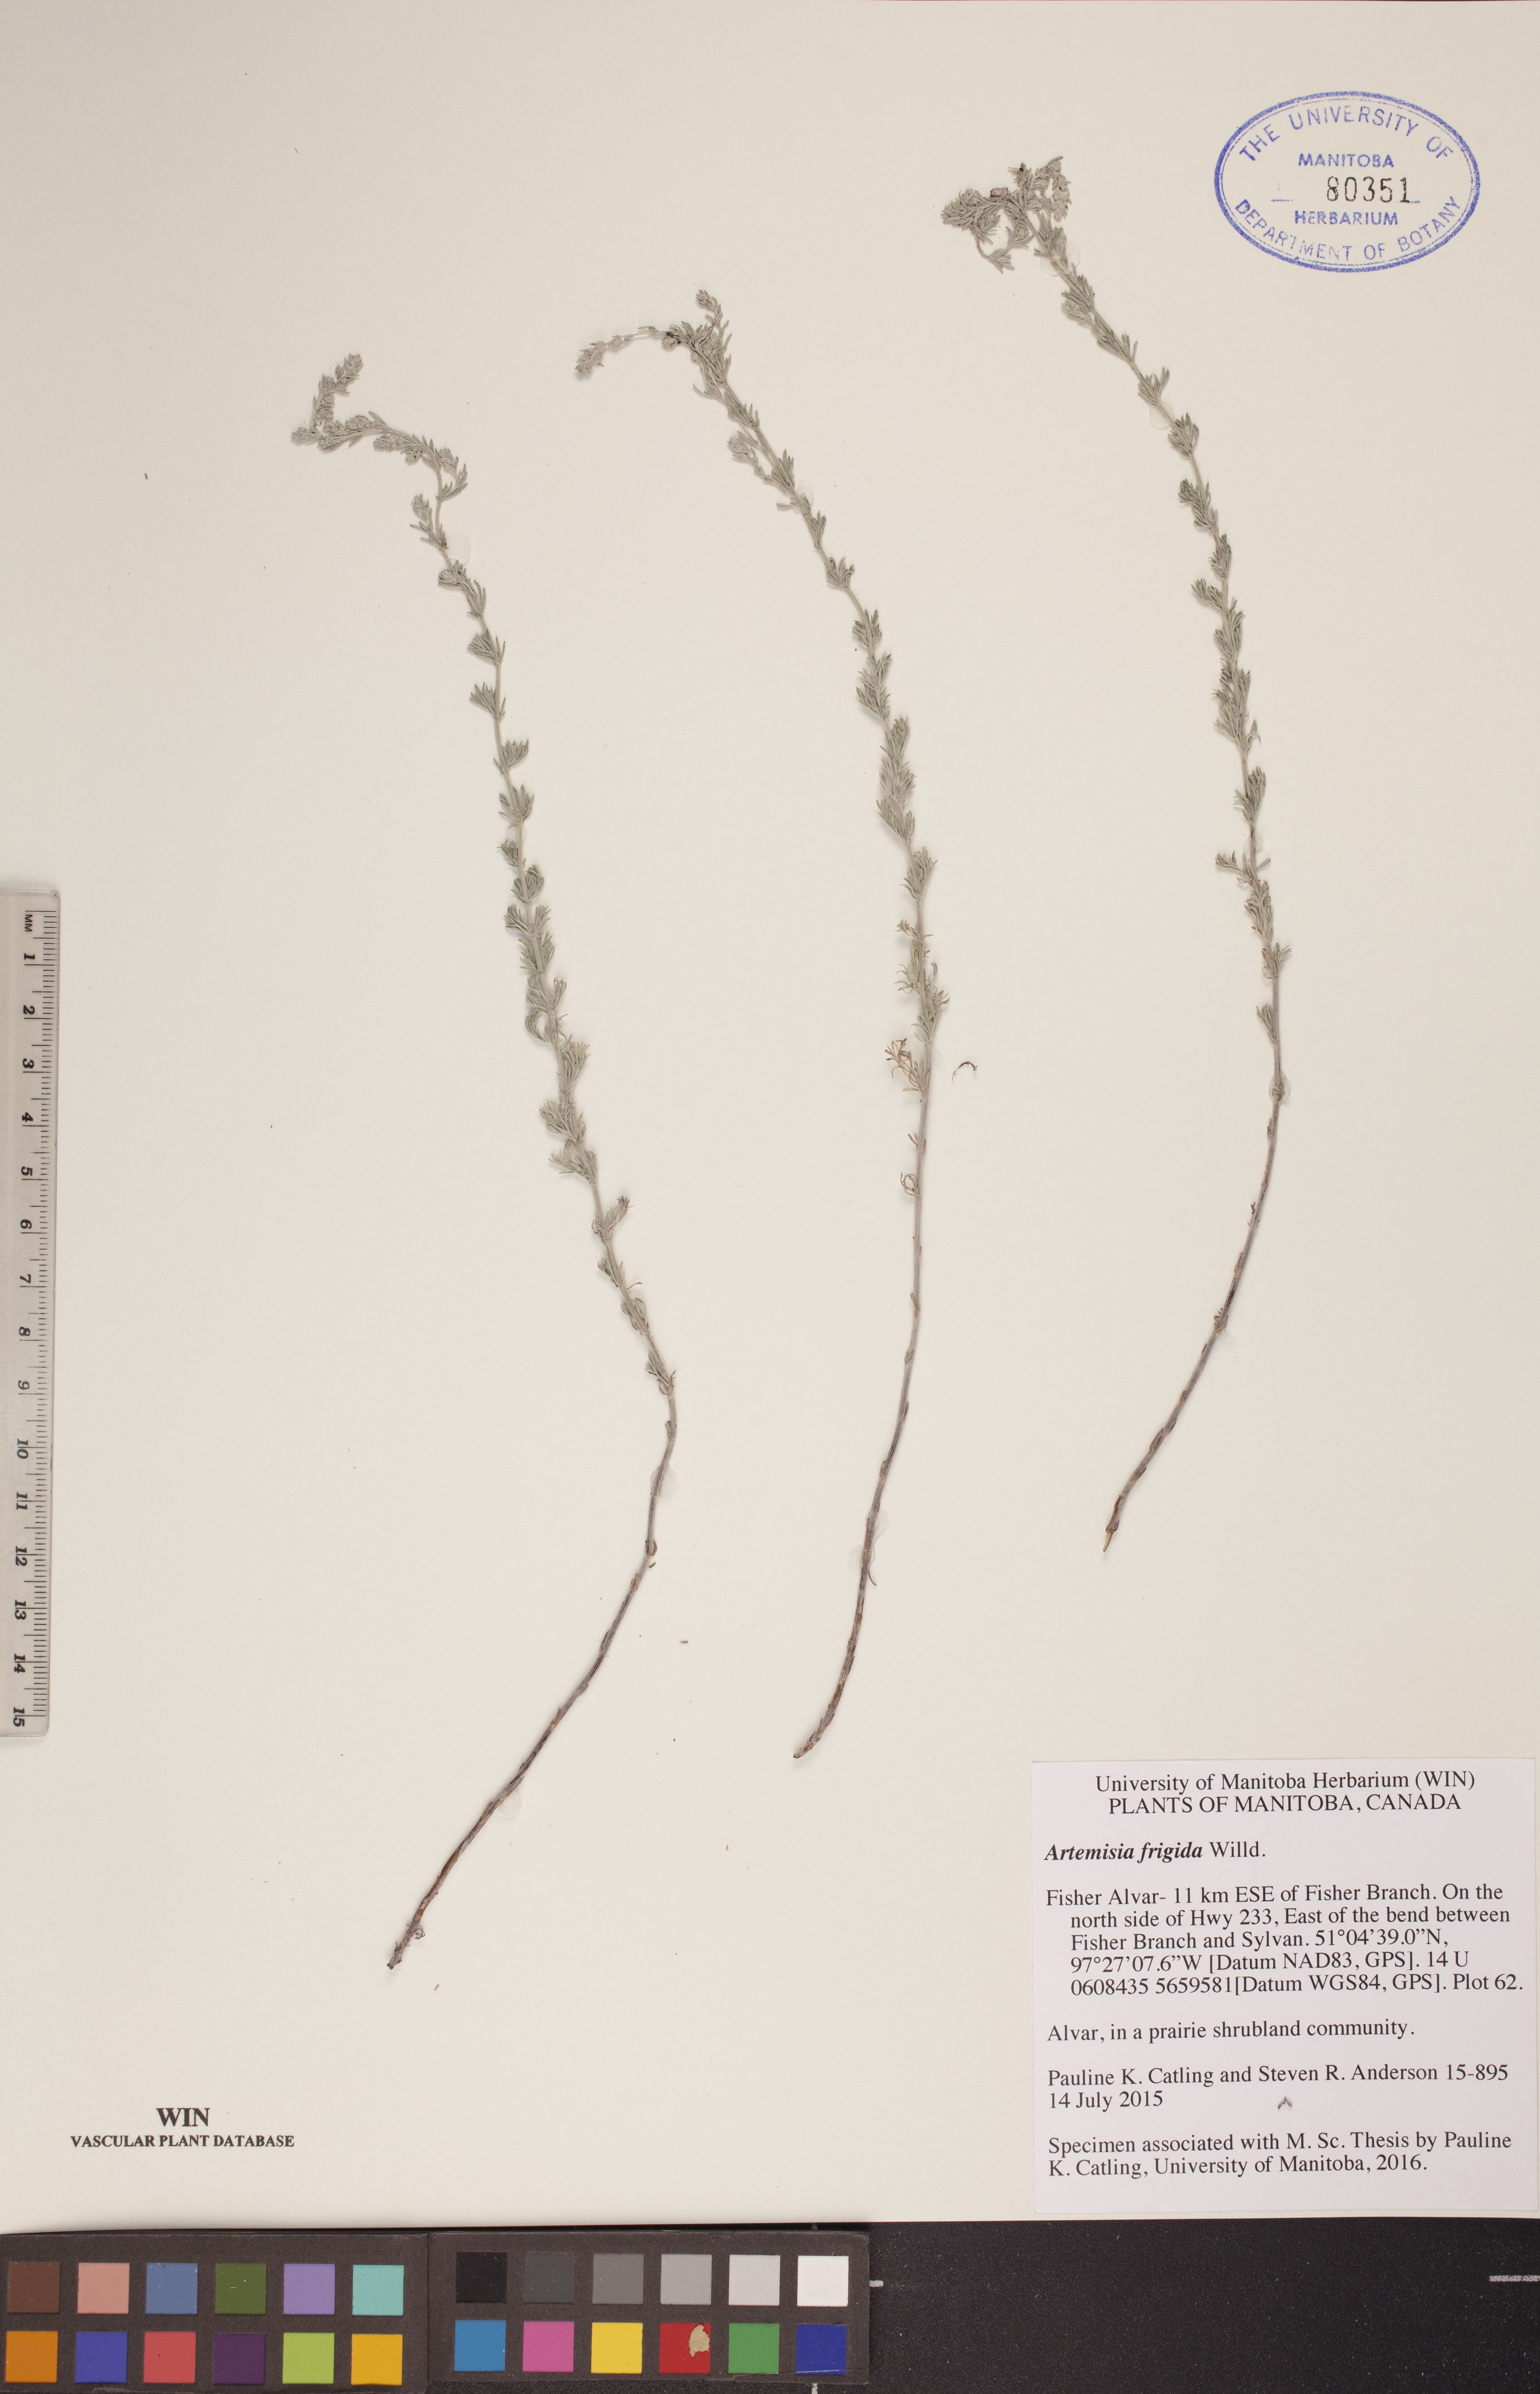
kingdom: Plantae
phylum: Tracheophyta
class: Magnoliopsida
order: Asterales
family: Asteraceae
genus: Artemisia
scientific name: Artemisia frigida
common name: Prairie sagewort
